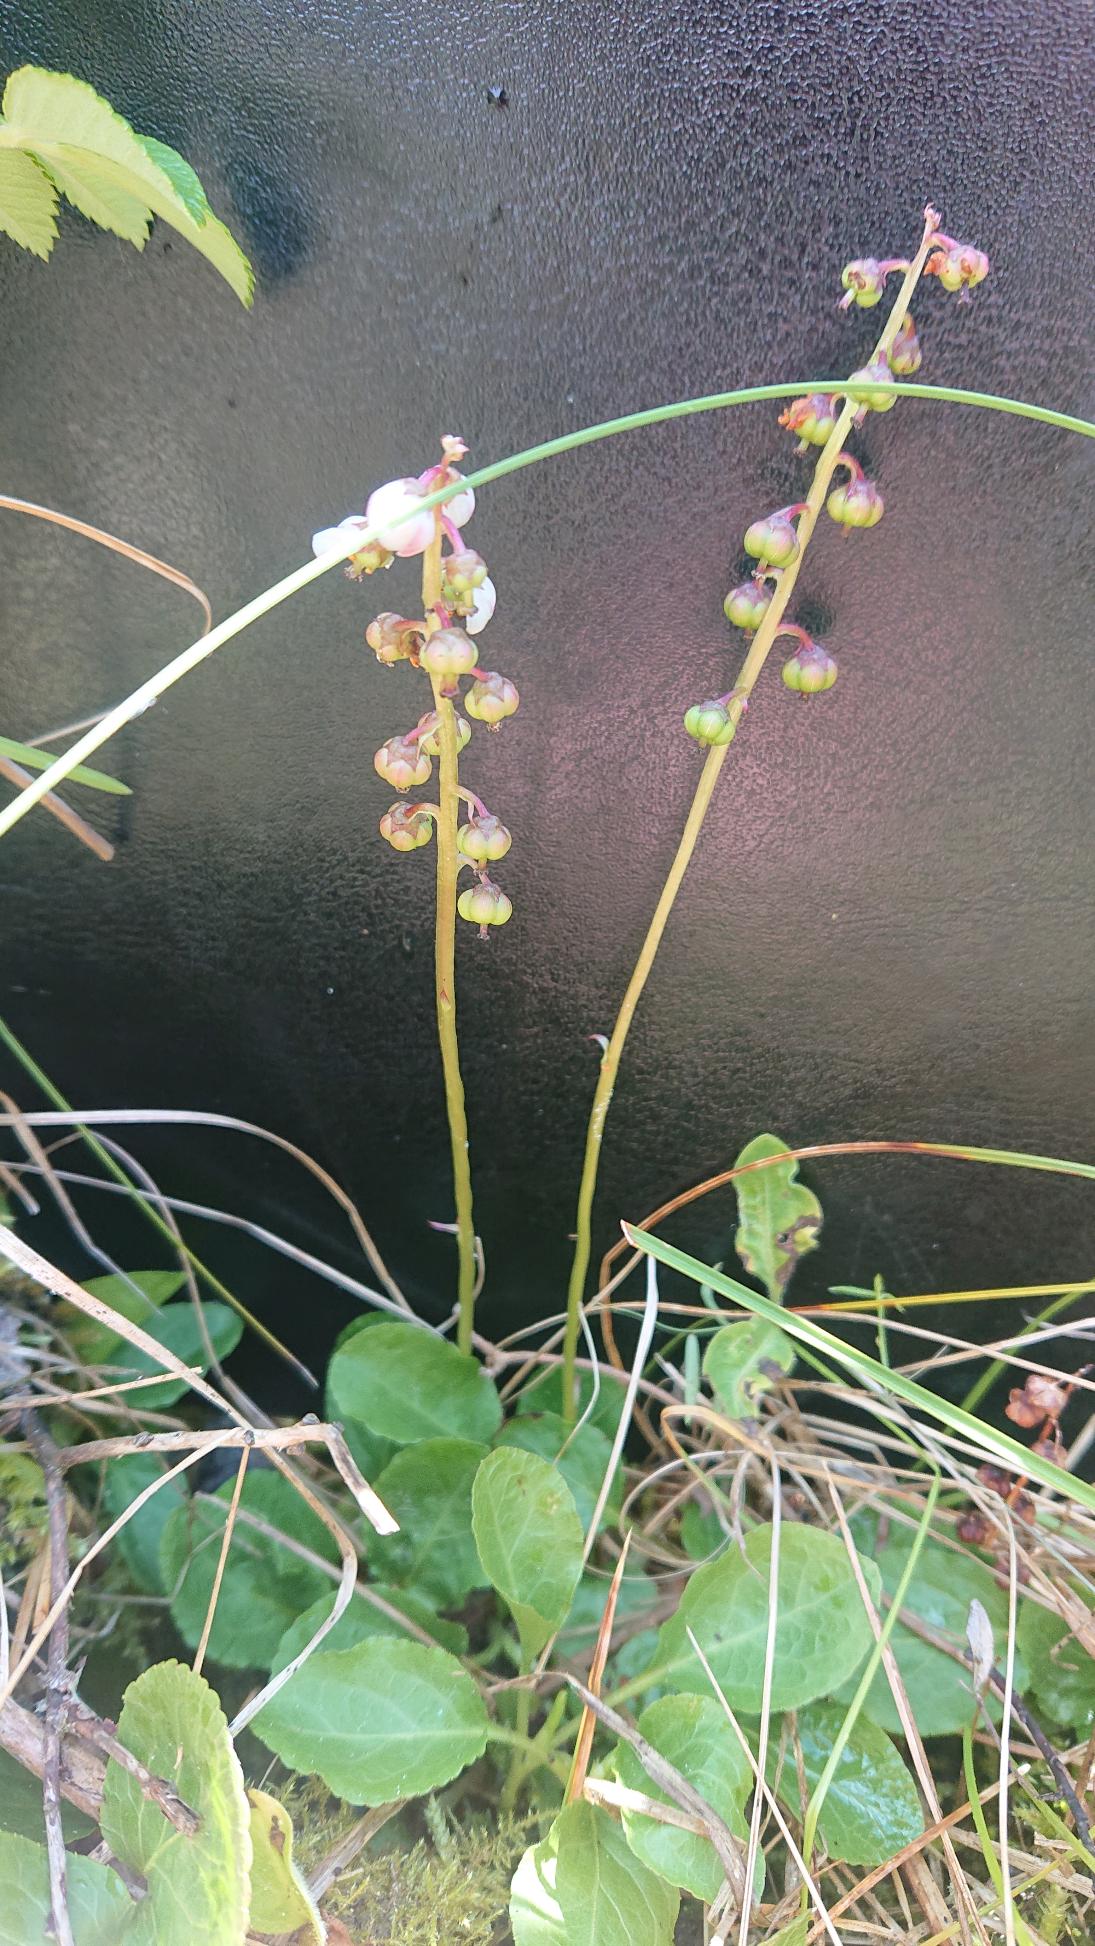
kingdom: Plantae
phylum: Tracheophyta
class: Magnoliopsida
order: Ericales
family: Ericaceae
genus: Pyrola
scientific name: Pyrola minor
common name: Liden vintergrøn
